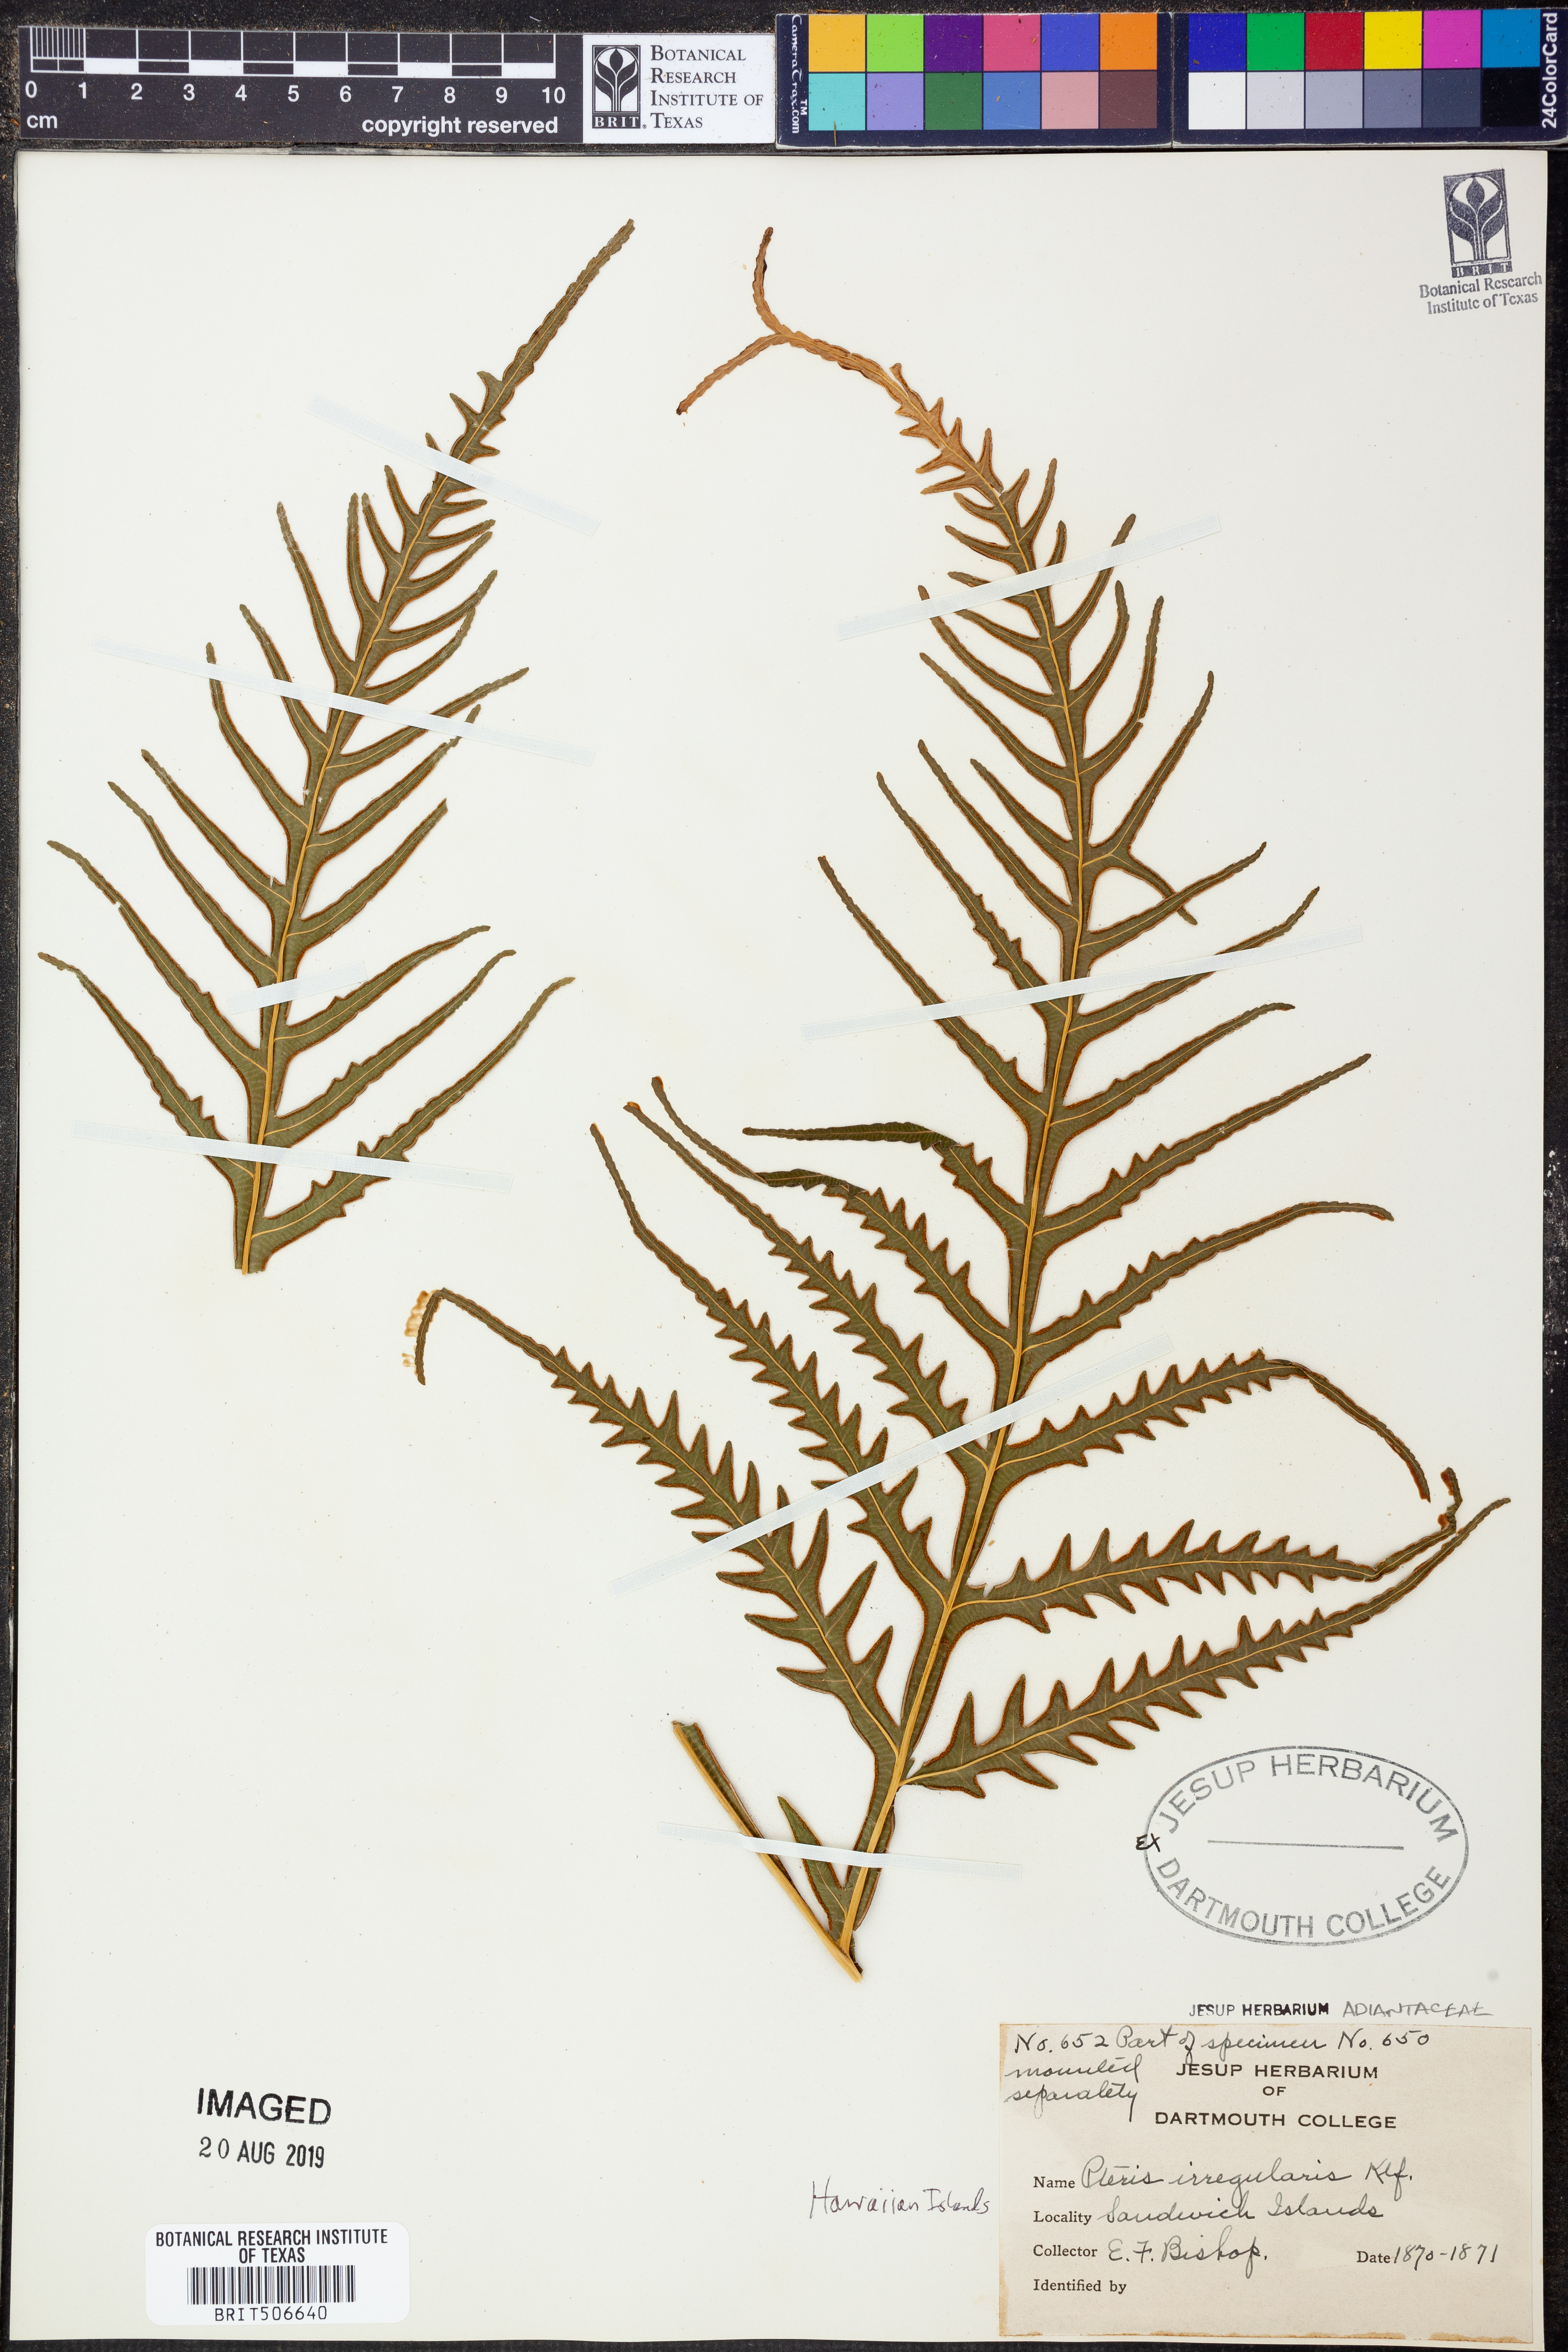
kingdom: Plantae
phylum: Tracheophyta
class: Polypodiopsida
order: Polypodiales
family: Pteridaceae
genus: Pteris
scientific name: Pteris irregularis
